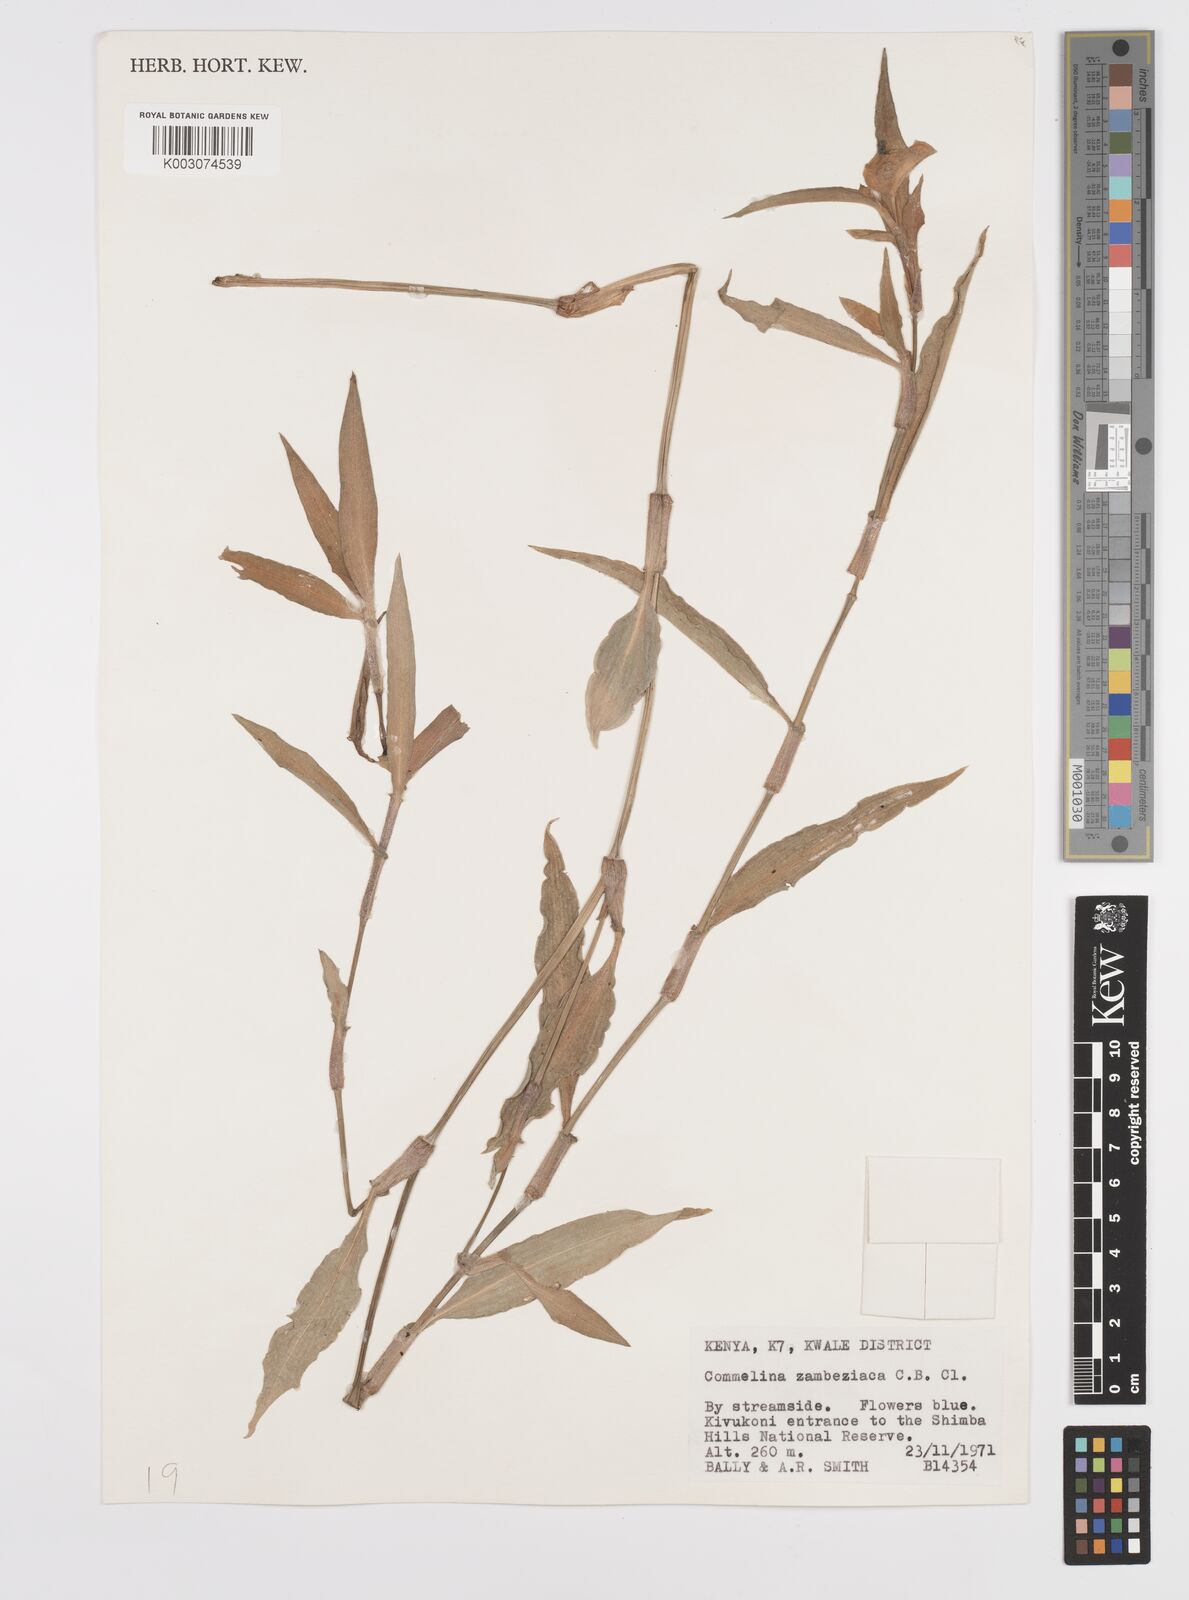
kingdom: Plantae
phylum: Tracheophyta
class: Liliopsida
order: Commelinales
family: Commelinaceae
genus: Commelina
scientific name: Commelina zambesica
